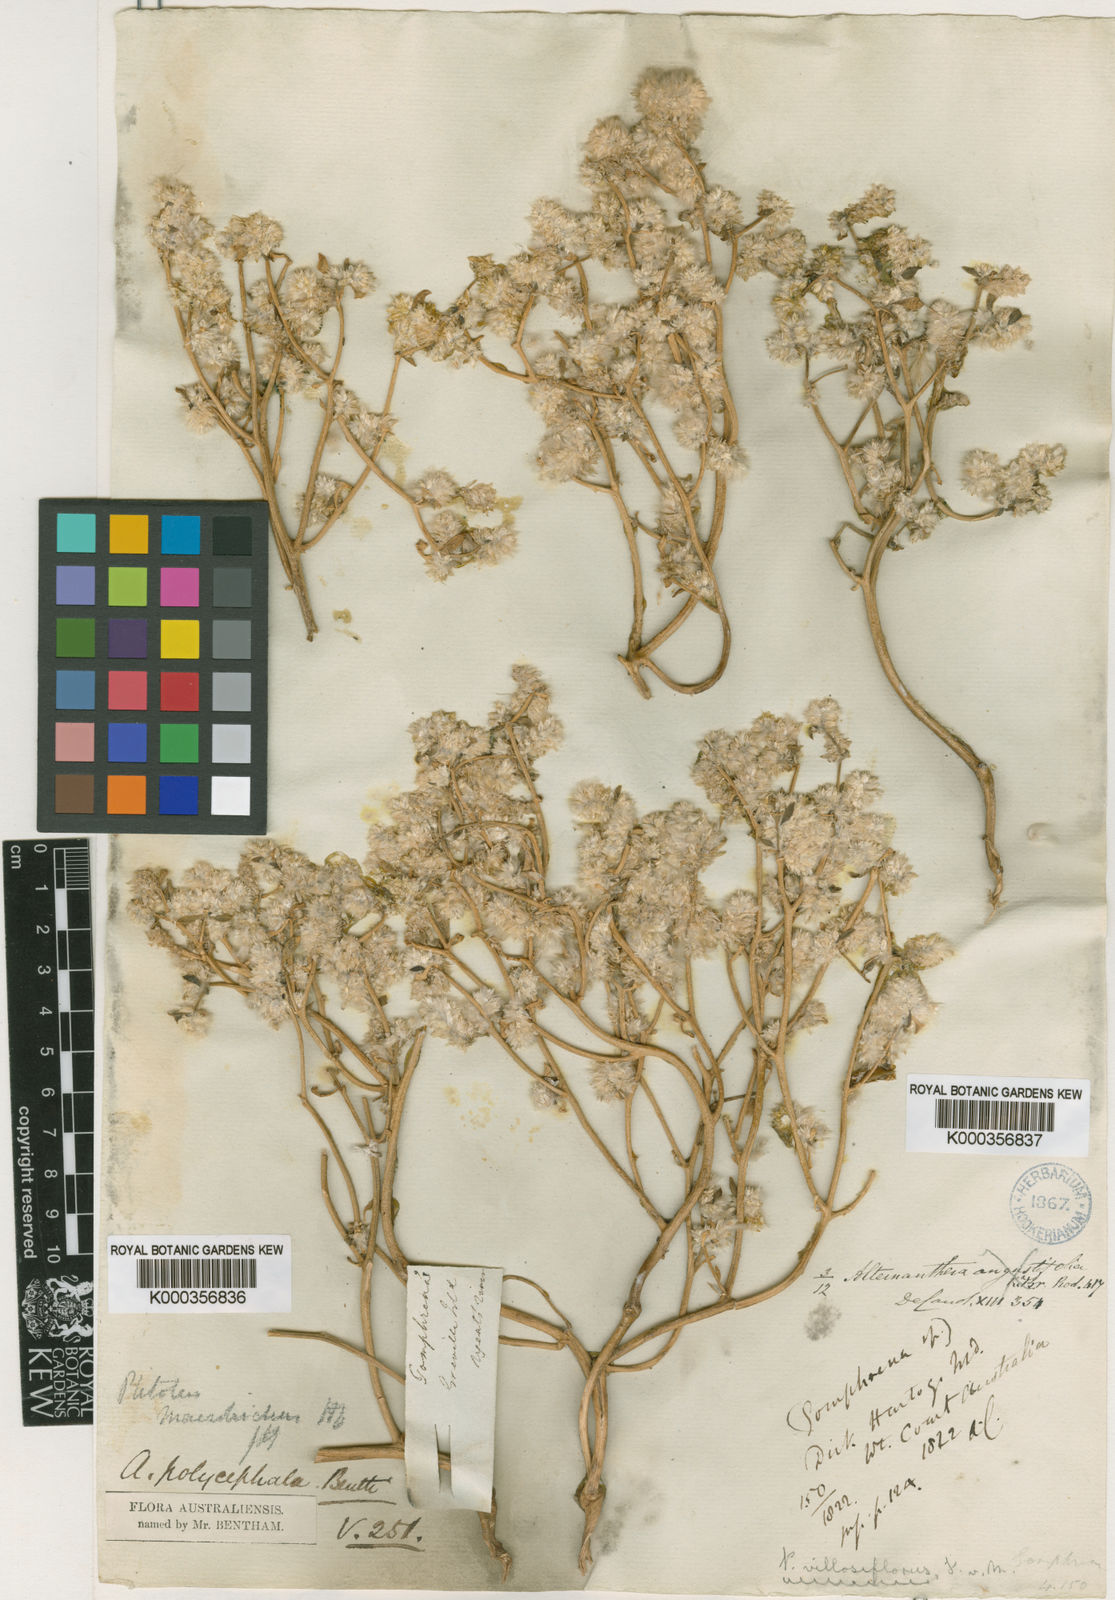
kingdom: Plantae
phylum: Tracheophyta
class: Magnoliopsida
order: Caryophyllales
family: Amaranthaceae
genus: Ptilotus
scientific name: Ptilotus villosiflorus
